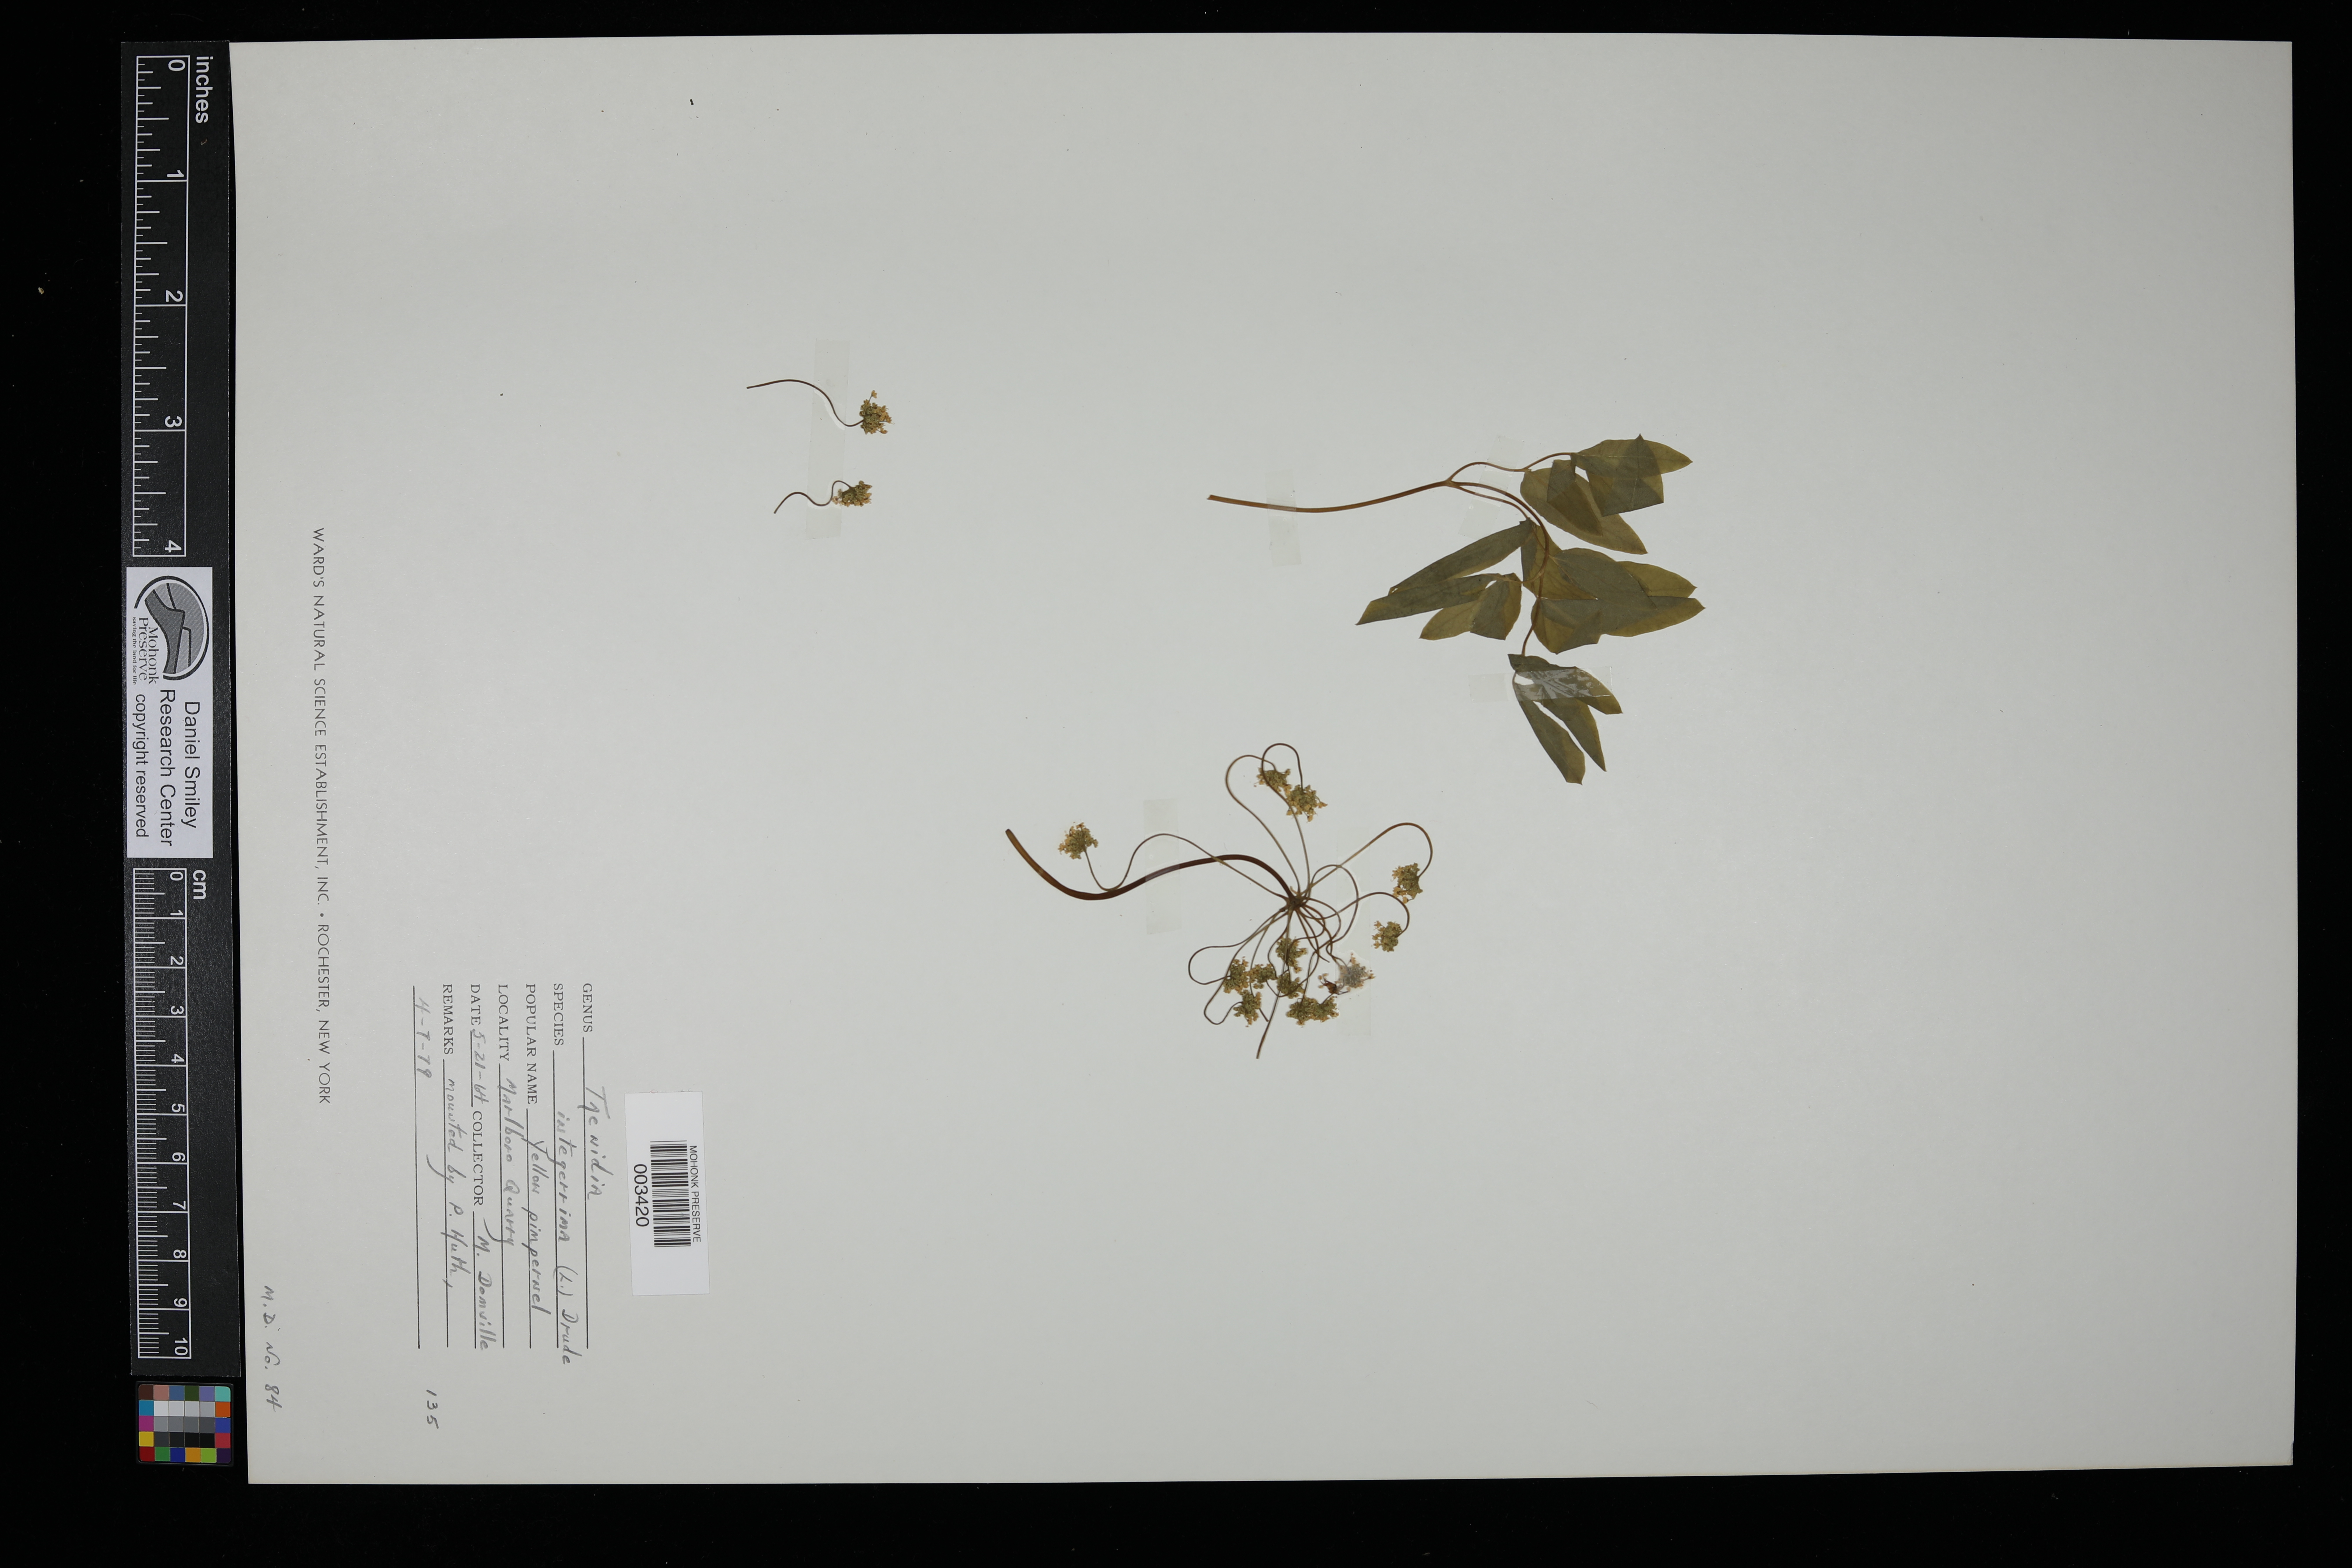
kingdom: Plantae
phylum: Tracheophyta
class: Magnoliopsida
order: Apiales
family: Apiaceae
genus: Taenidia
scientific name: Taenidia integerrima
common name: Golden alexander
